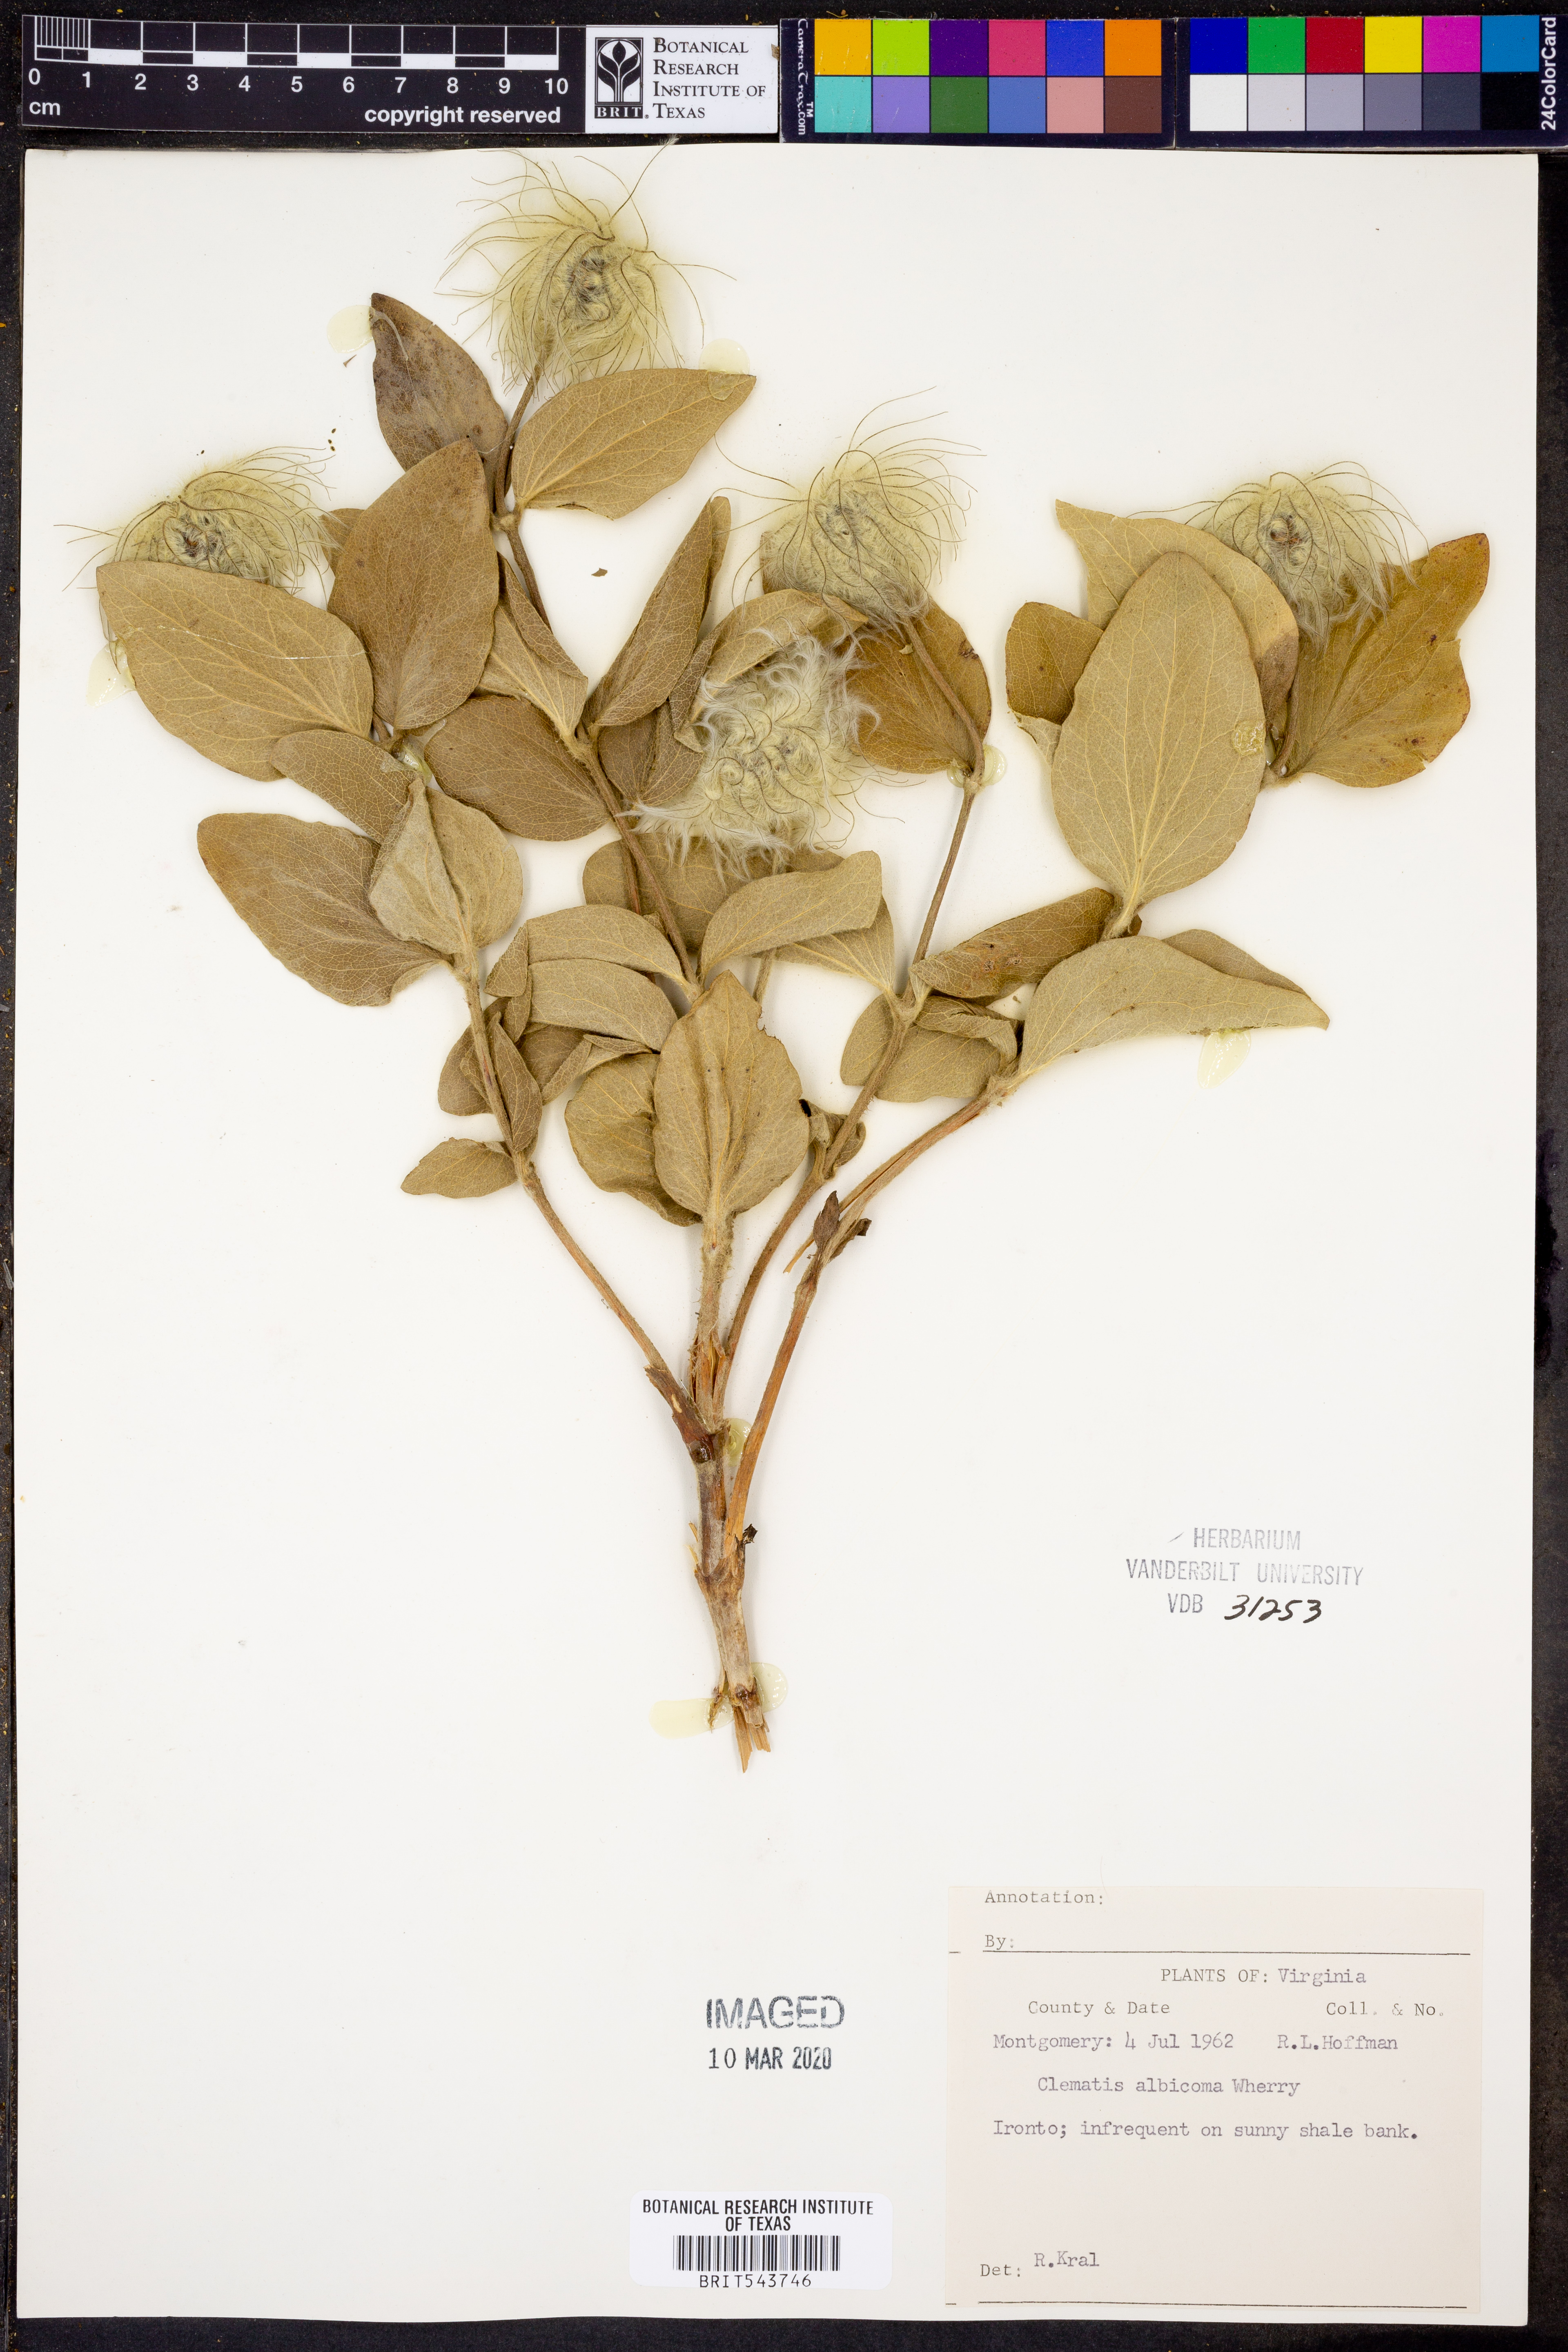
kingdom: Plantae
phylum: Tracheophyta
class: Magnoliopsida
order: Ranunculales
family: Ranunculaceae
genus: Clematis
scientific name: Clematis albicoma
